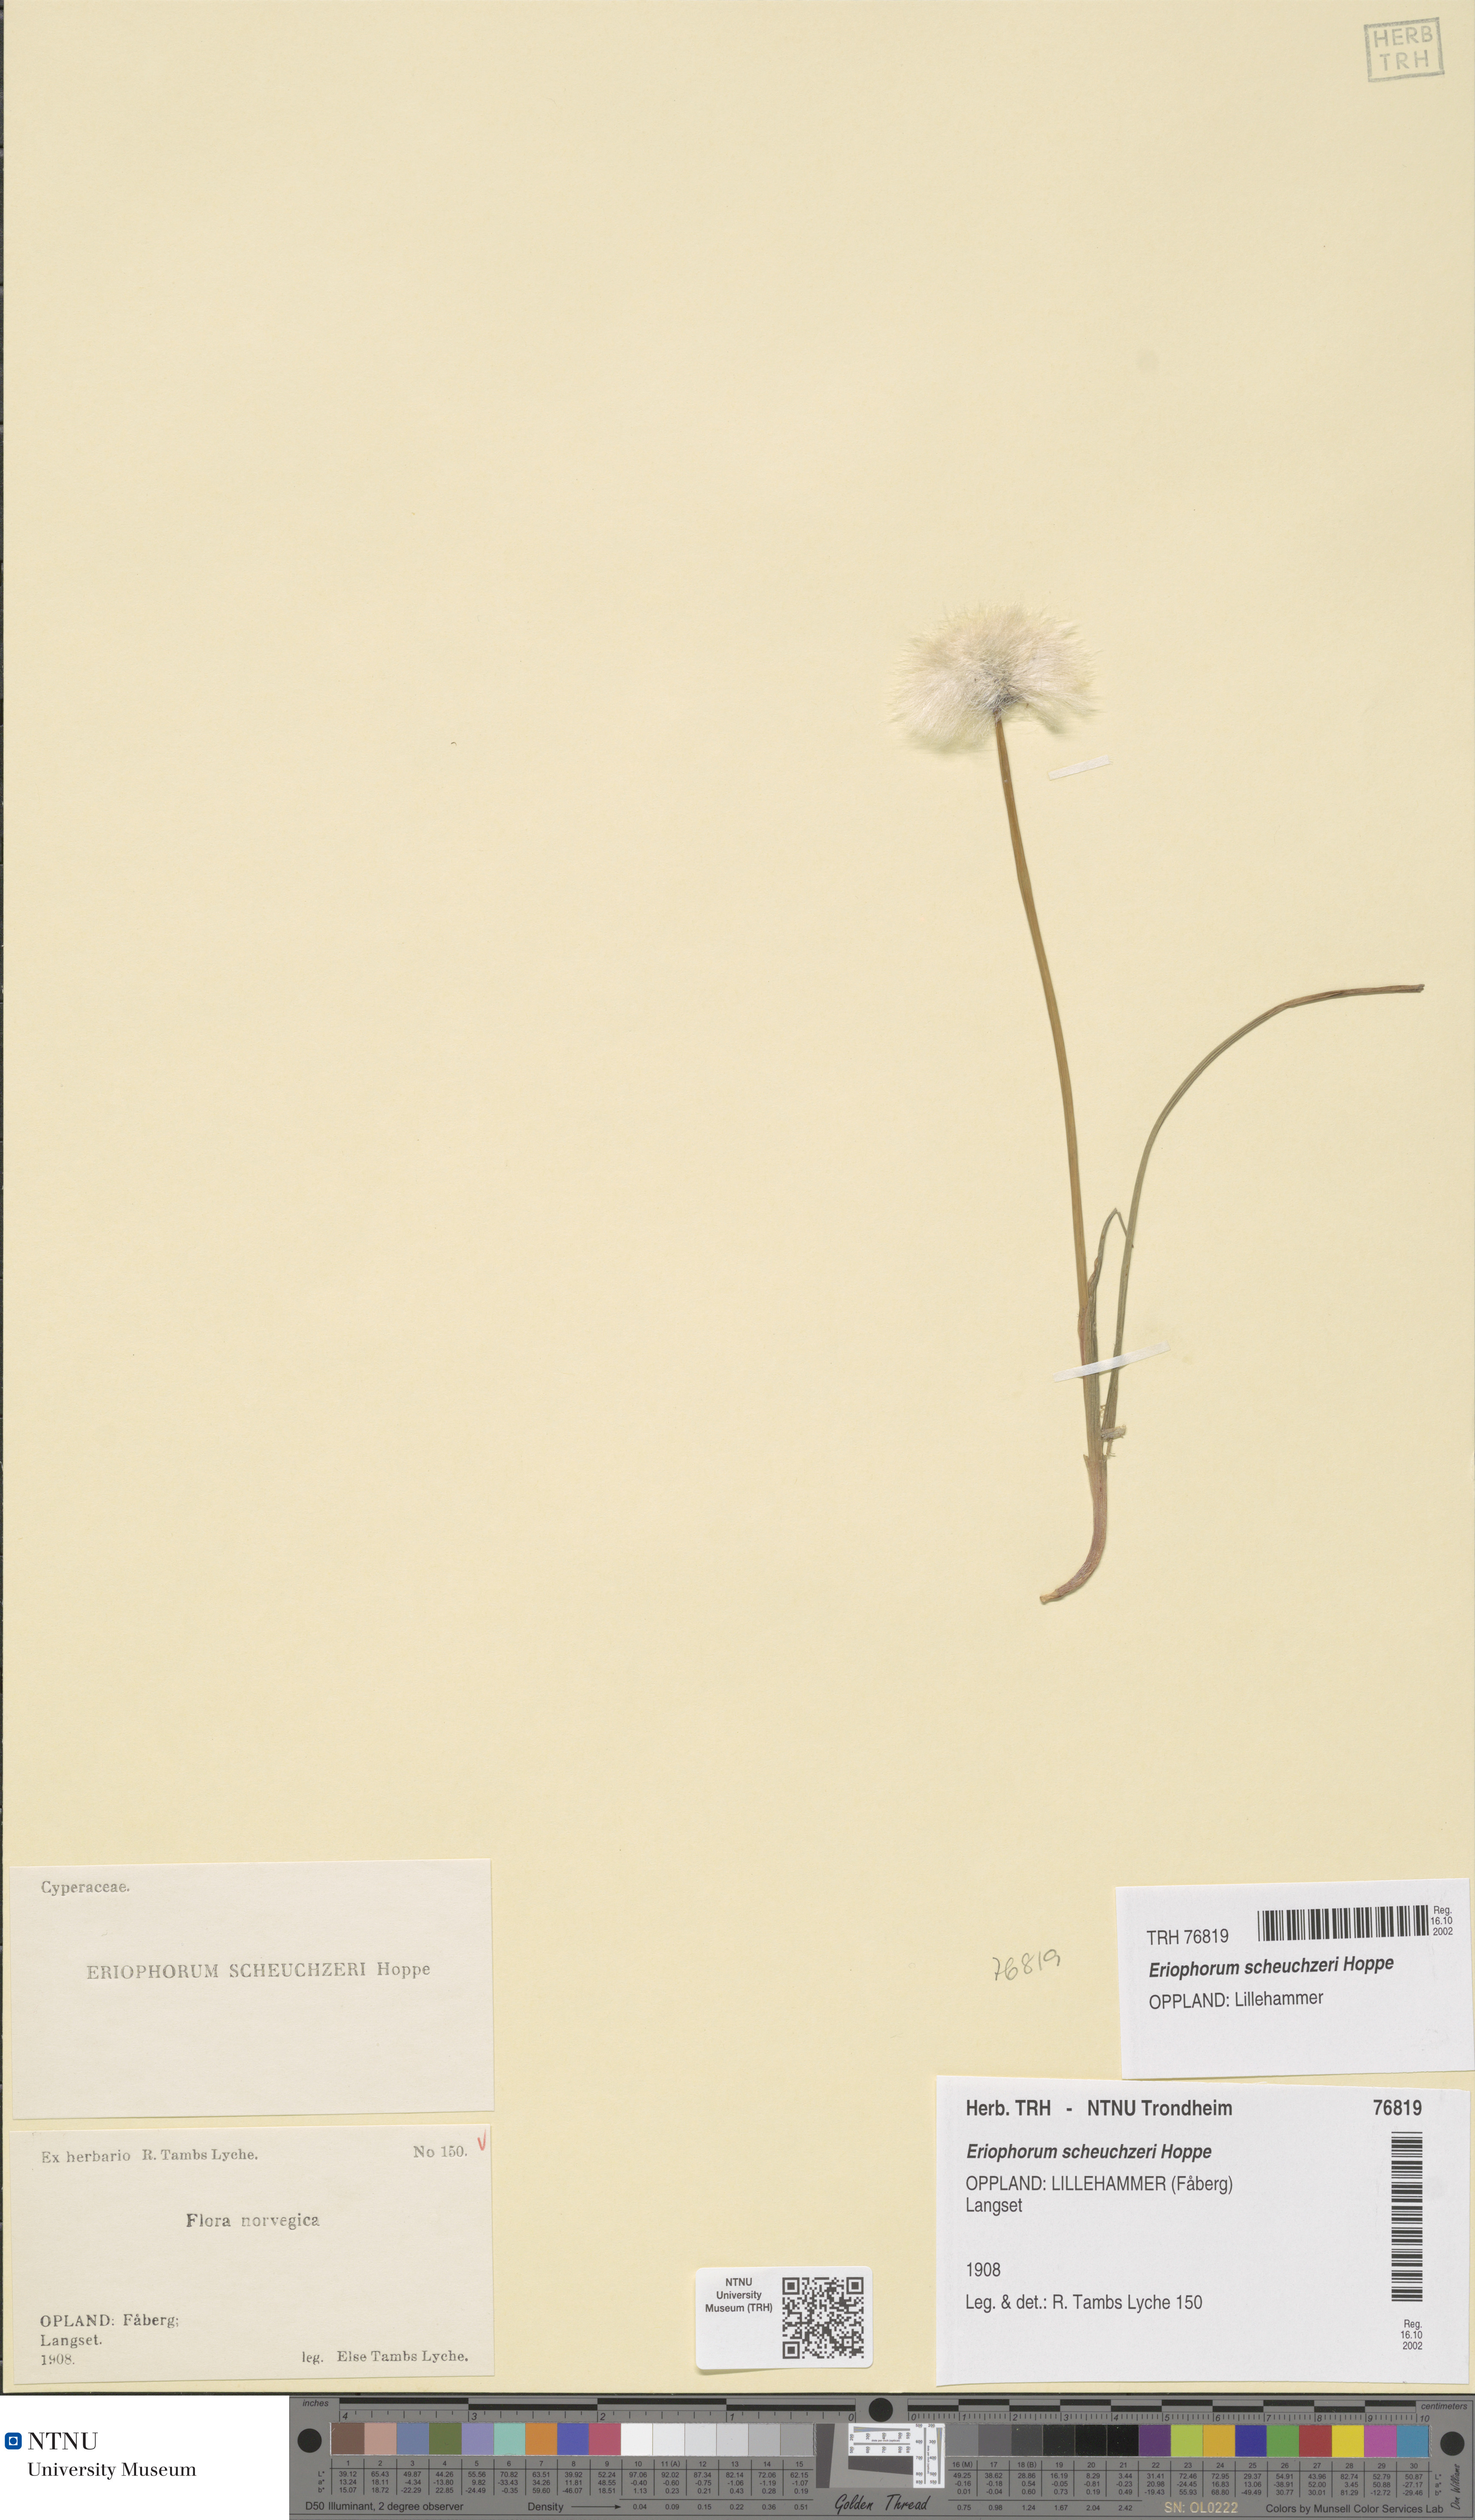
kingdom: Plantae
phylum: Tracheophyta
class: Liliopsida
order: Poales
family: Cyperaceae
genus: Eriophorum
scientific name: Eriophorum scheuchzeri
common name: Scheuchzer's cottongrass
